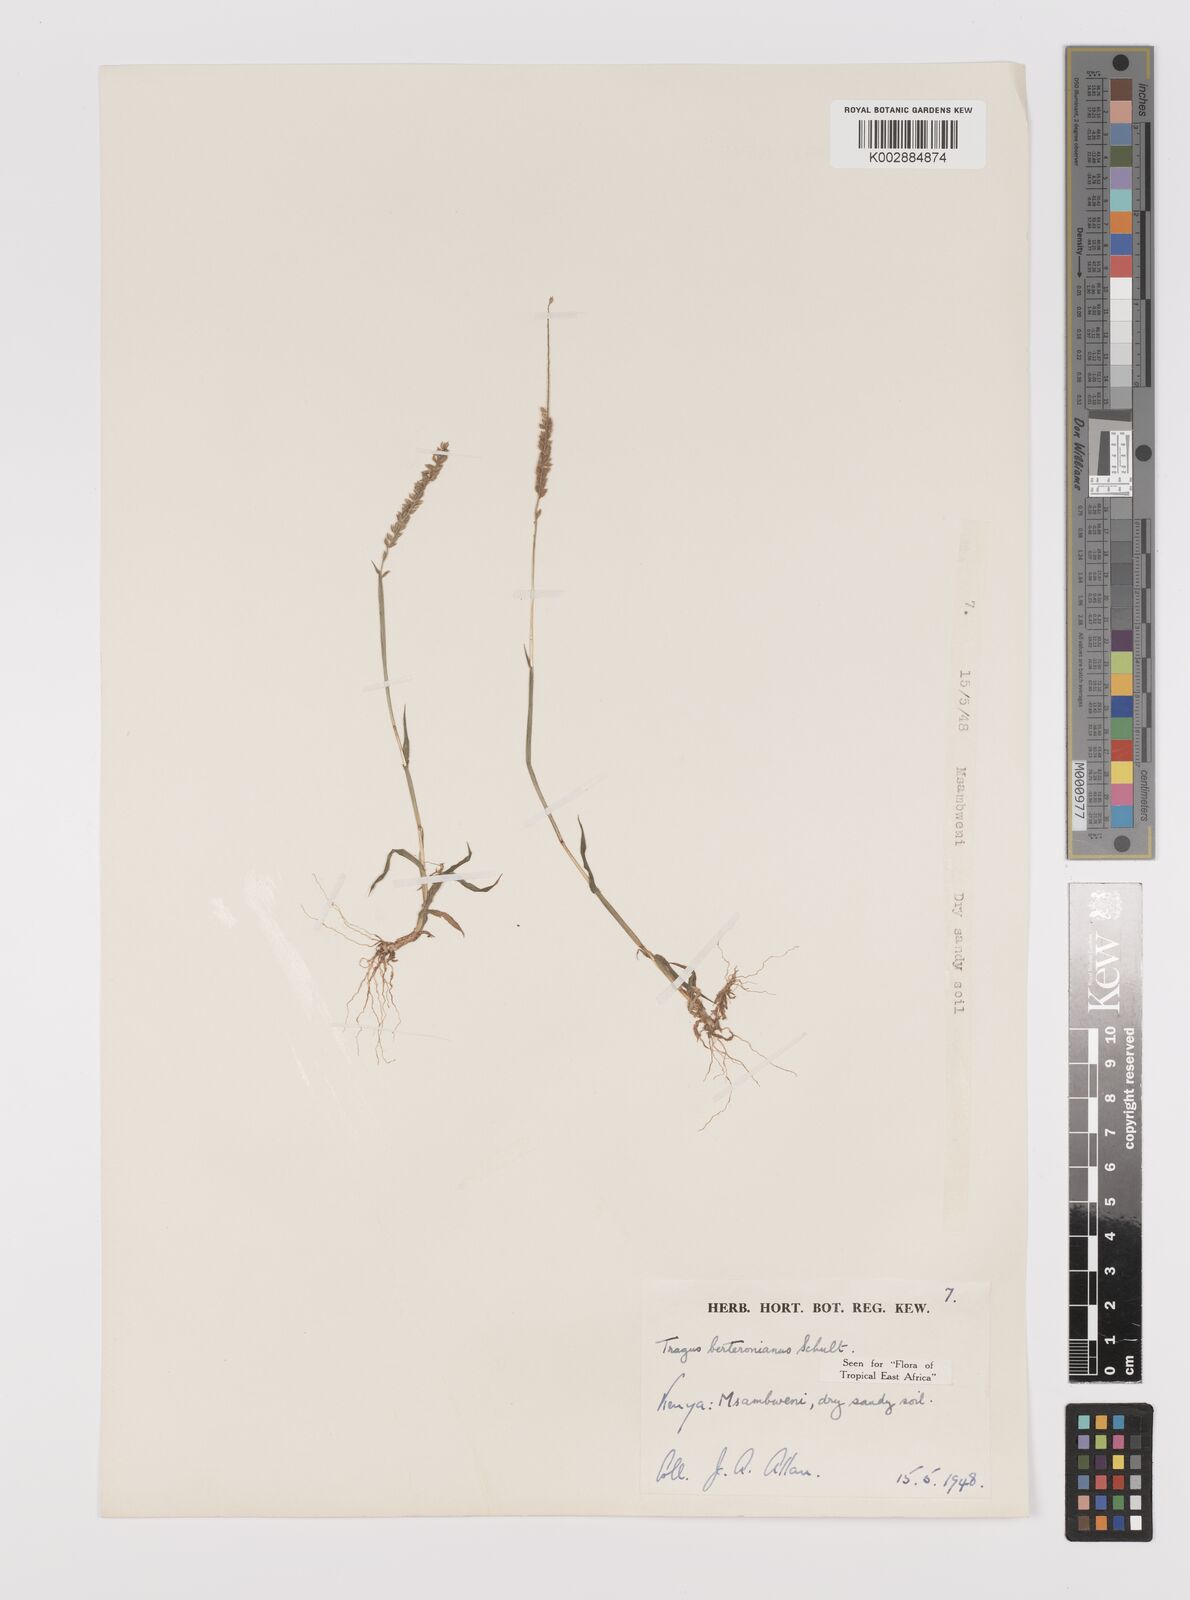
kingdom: Plantae
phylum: Tracheophyta
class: Liliopsida
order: Poales
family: Poaceae
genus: Tragus
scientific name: Tragus berteronianus
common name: African bur-grass
